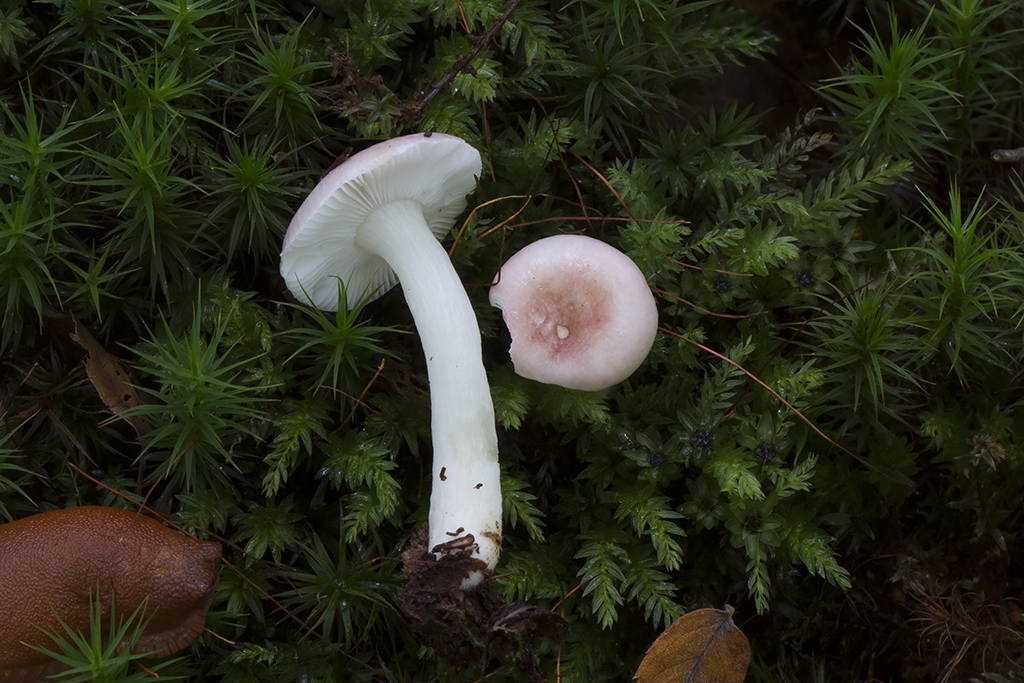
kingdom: Fungi
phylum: Basidiomycota
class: Agaricomycetes
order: Russulales
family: Russulaceae
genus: Russula
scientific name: Russula betularum
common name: bleg gift-skørhat
